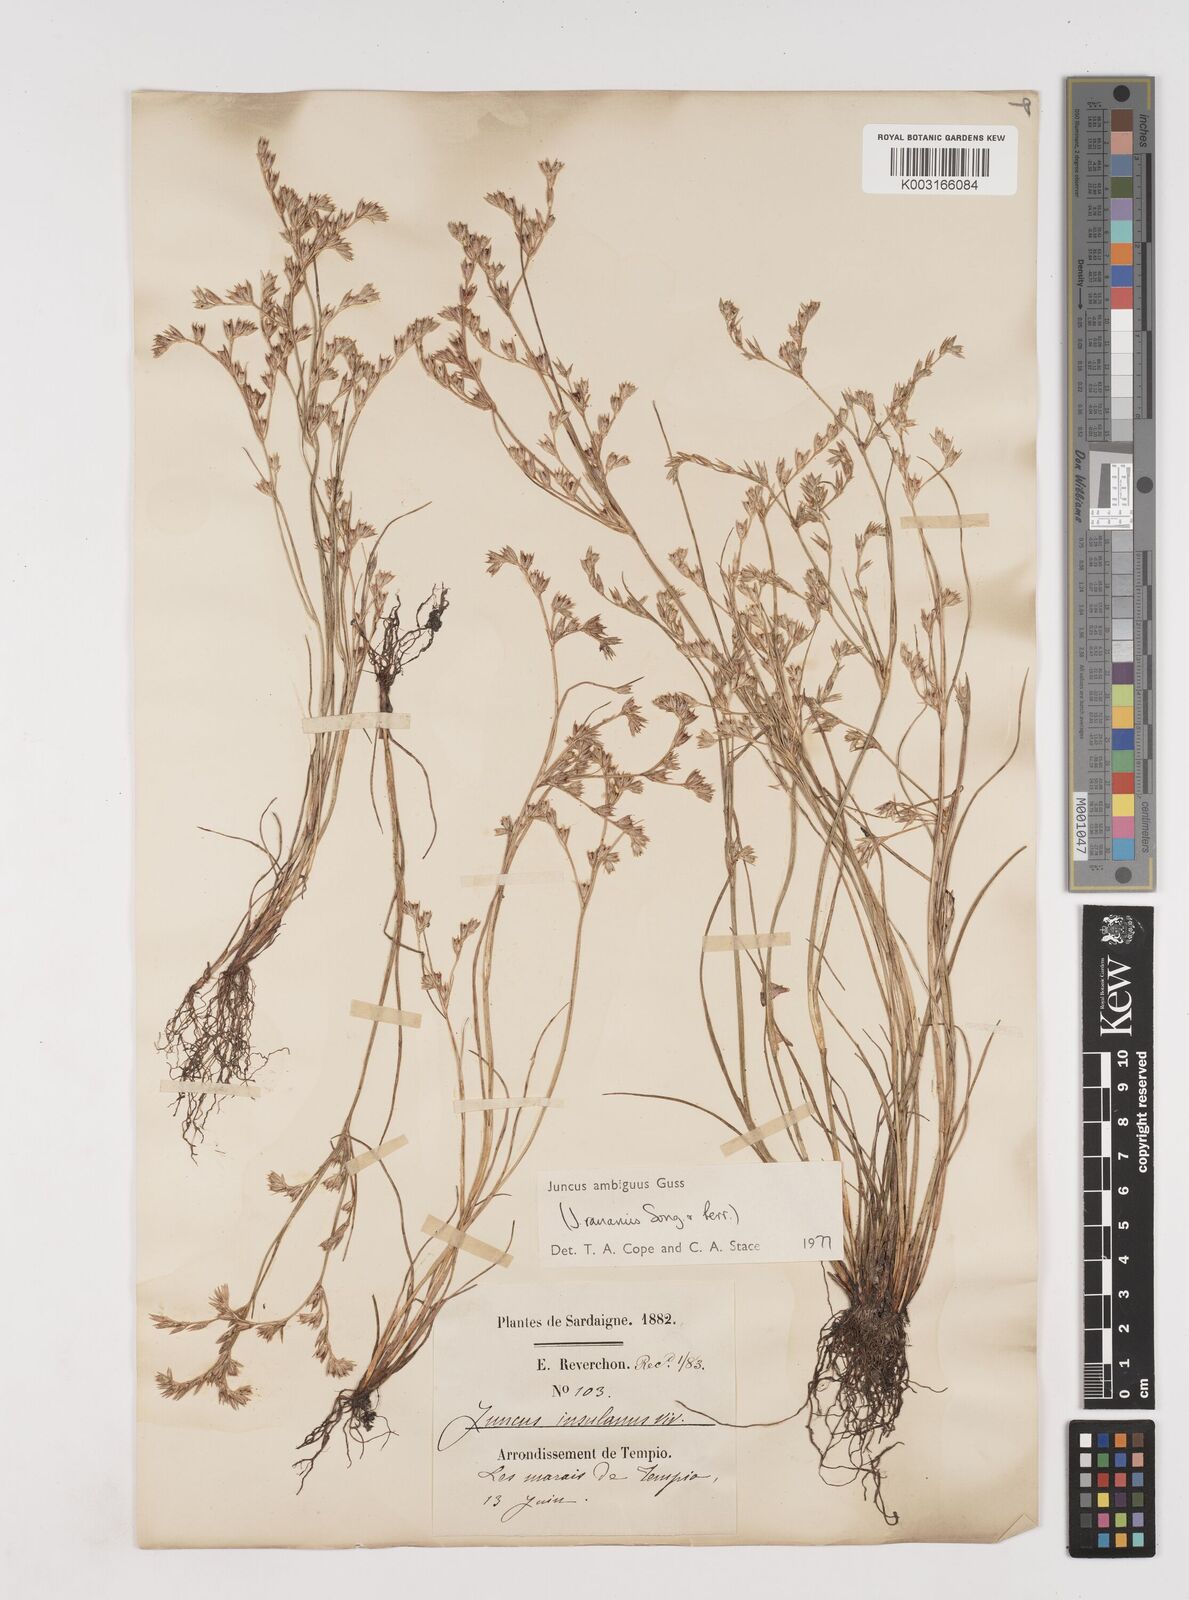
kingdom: Plantae
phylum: Tracheophyta
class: Liliopsida
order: Poales
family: Juncaceae
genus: Juncus
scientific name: Juncus hybridus
